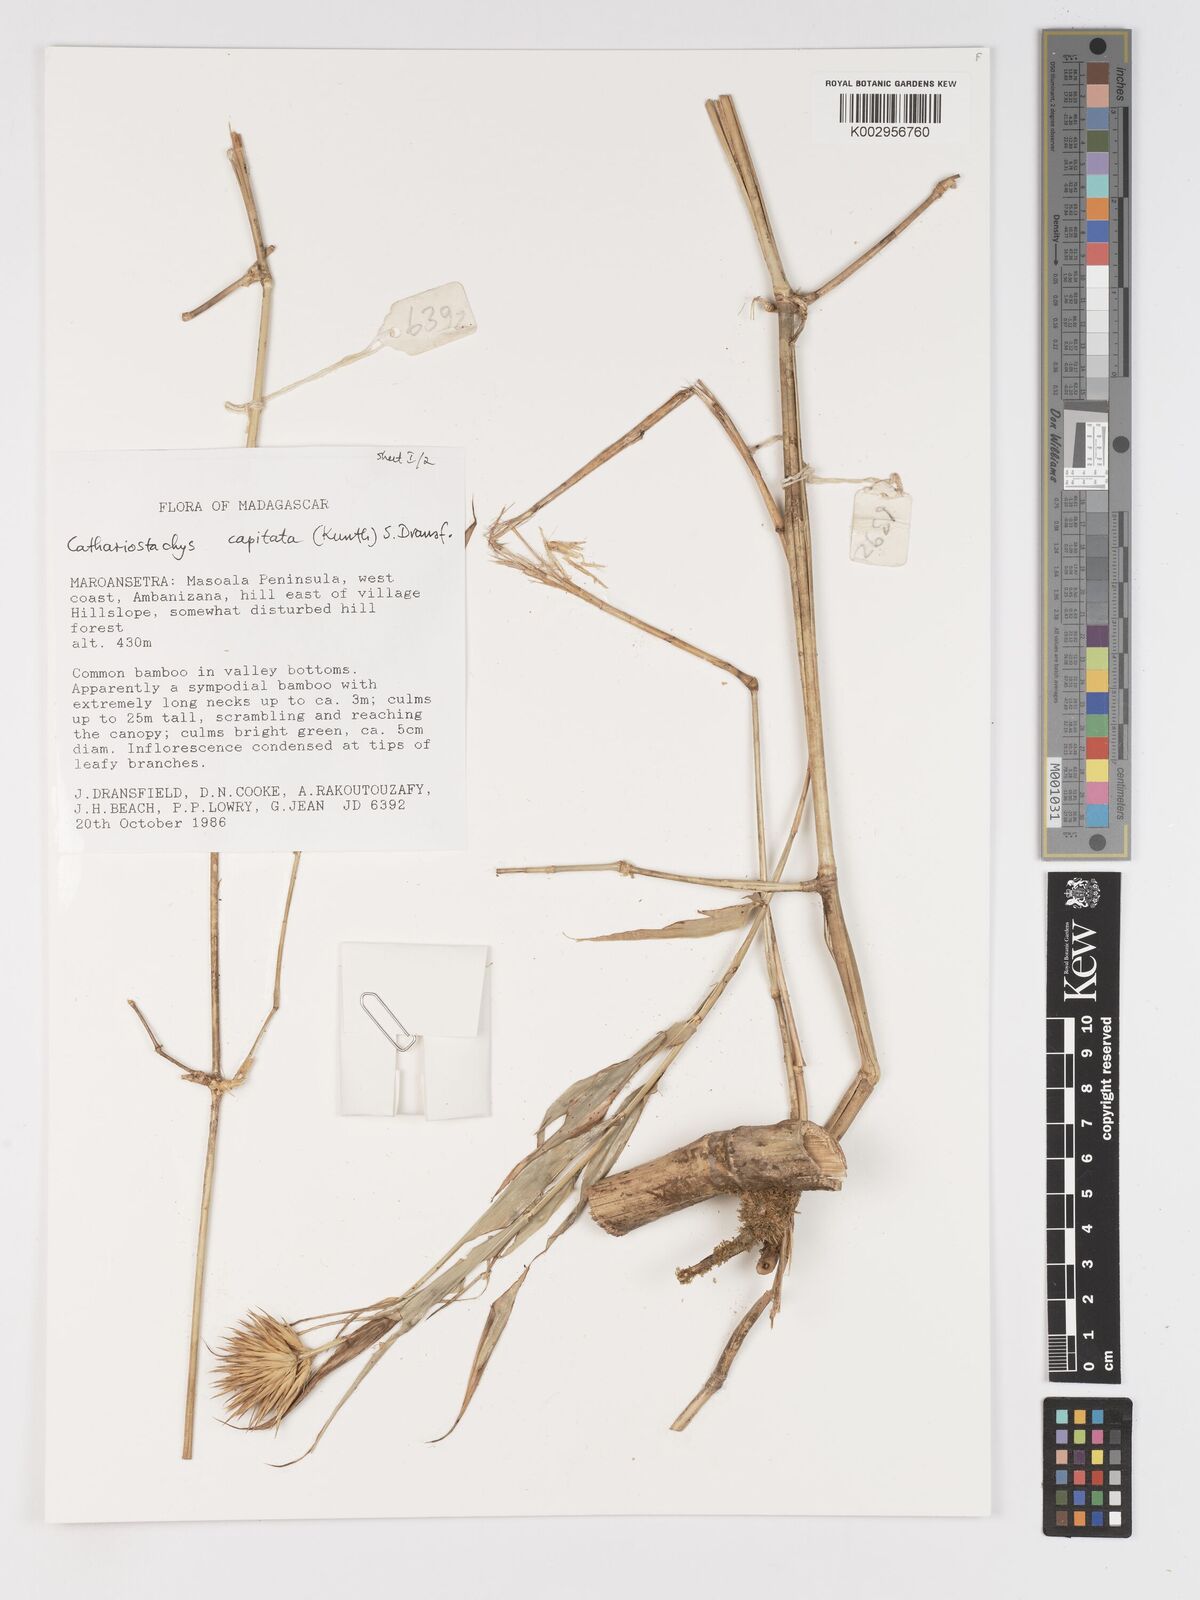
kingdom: Plantae
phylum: Tracheophyta
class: Liliopsida
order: Poales
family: Poaceae
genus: Cathariostachys
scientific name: Cathariostachys capitata
